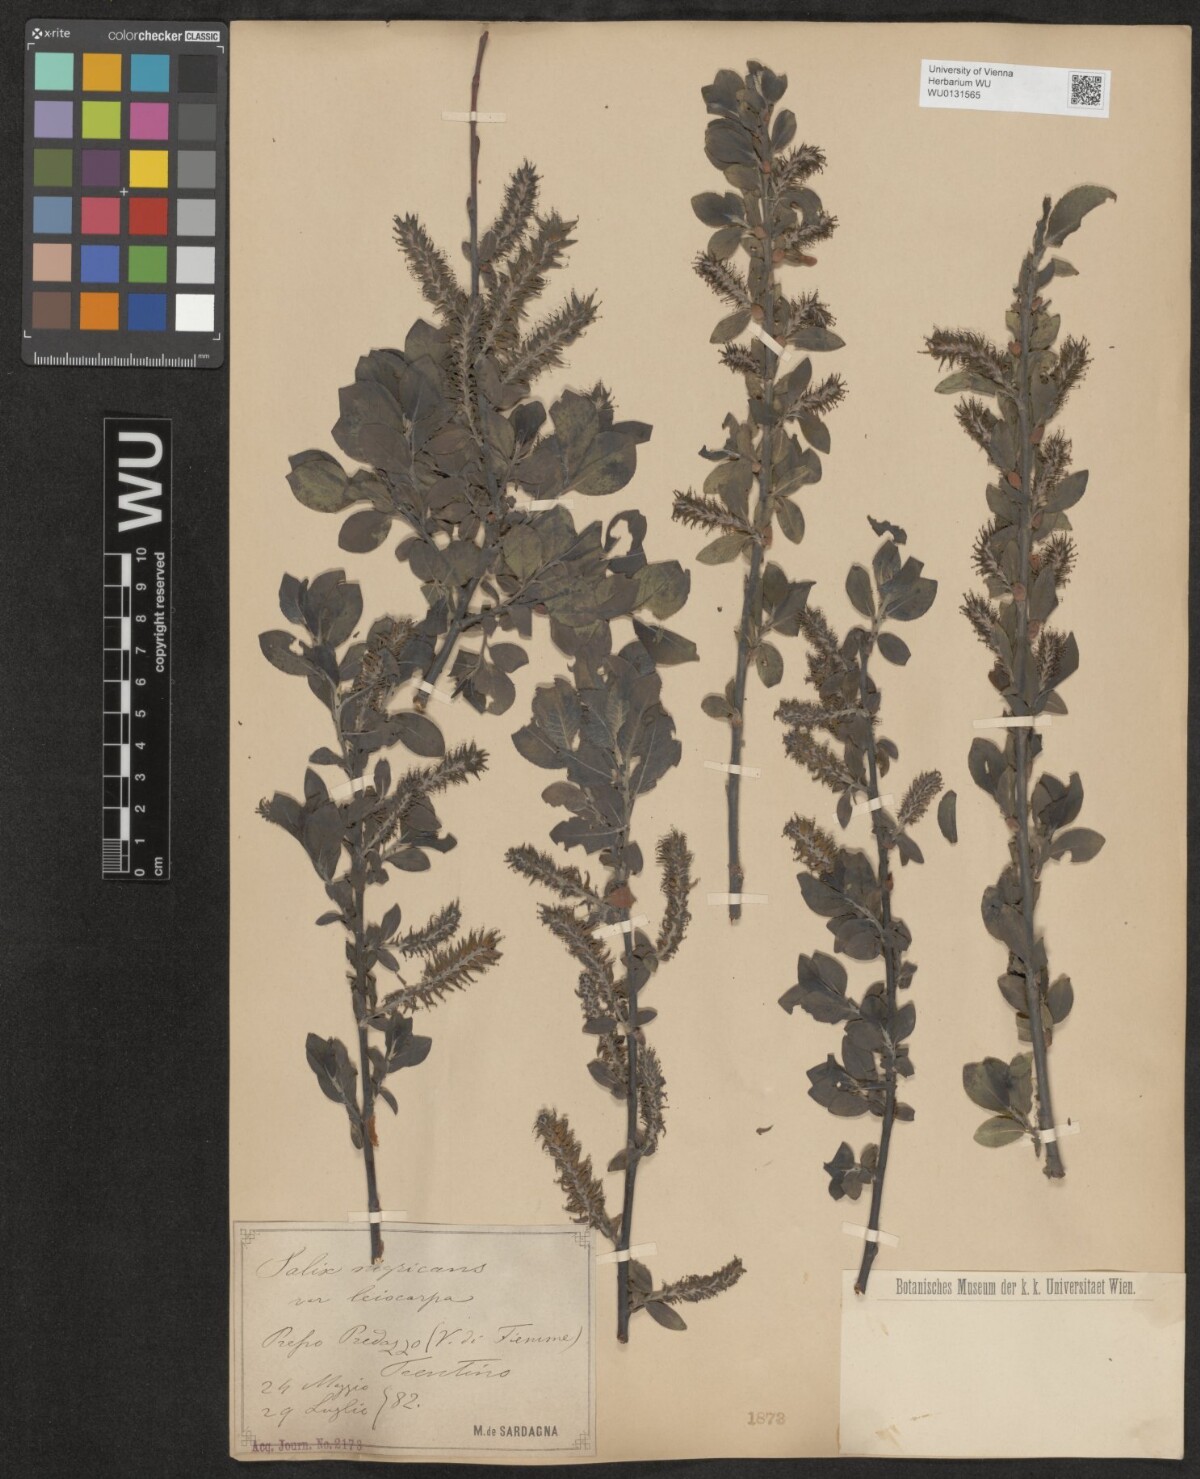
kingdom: Plantae
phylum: Tracheophyta
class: Magnoliopsida
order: Malpighiales
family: Salicaceae
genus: Salix
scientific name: Salix myrsinifolia
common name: Dark-leaved willow
